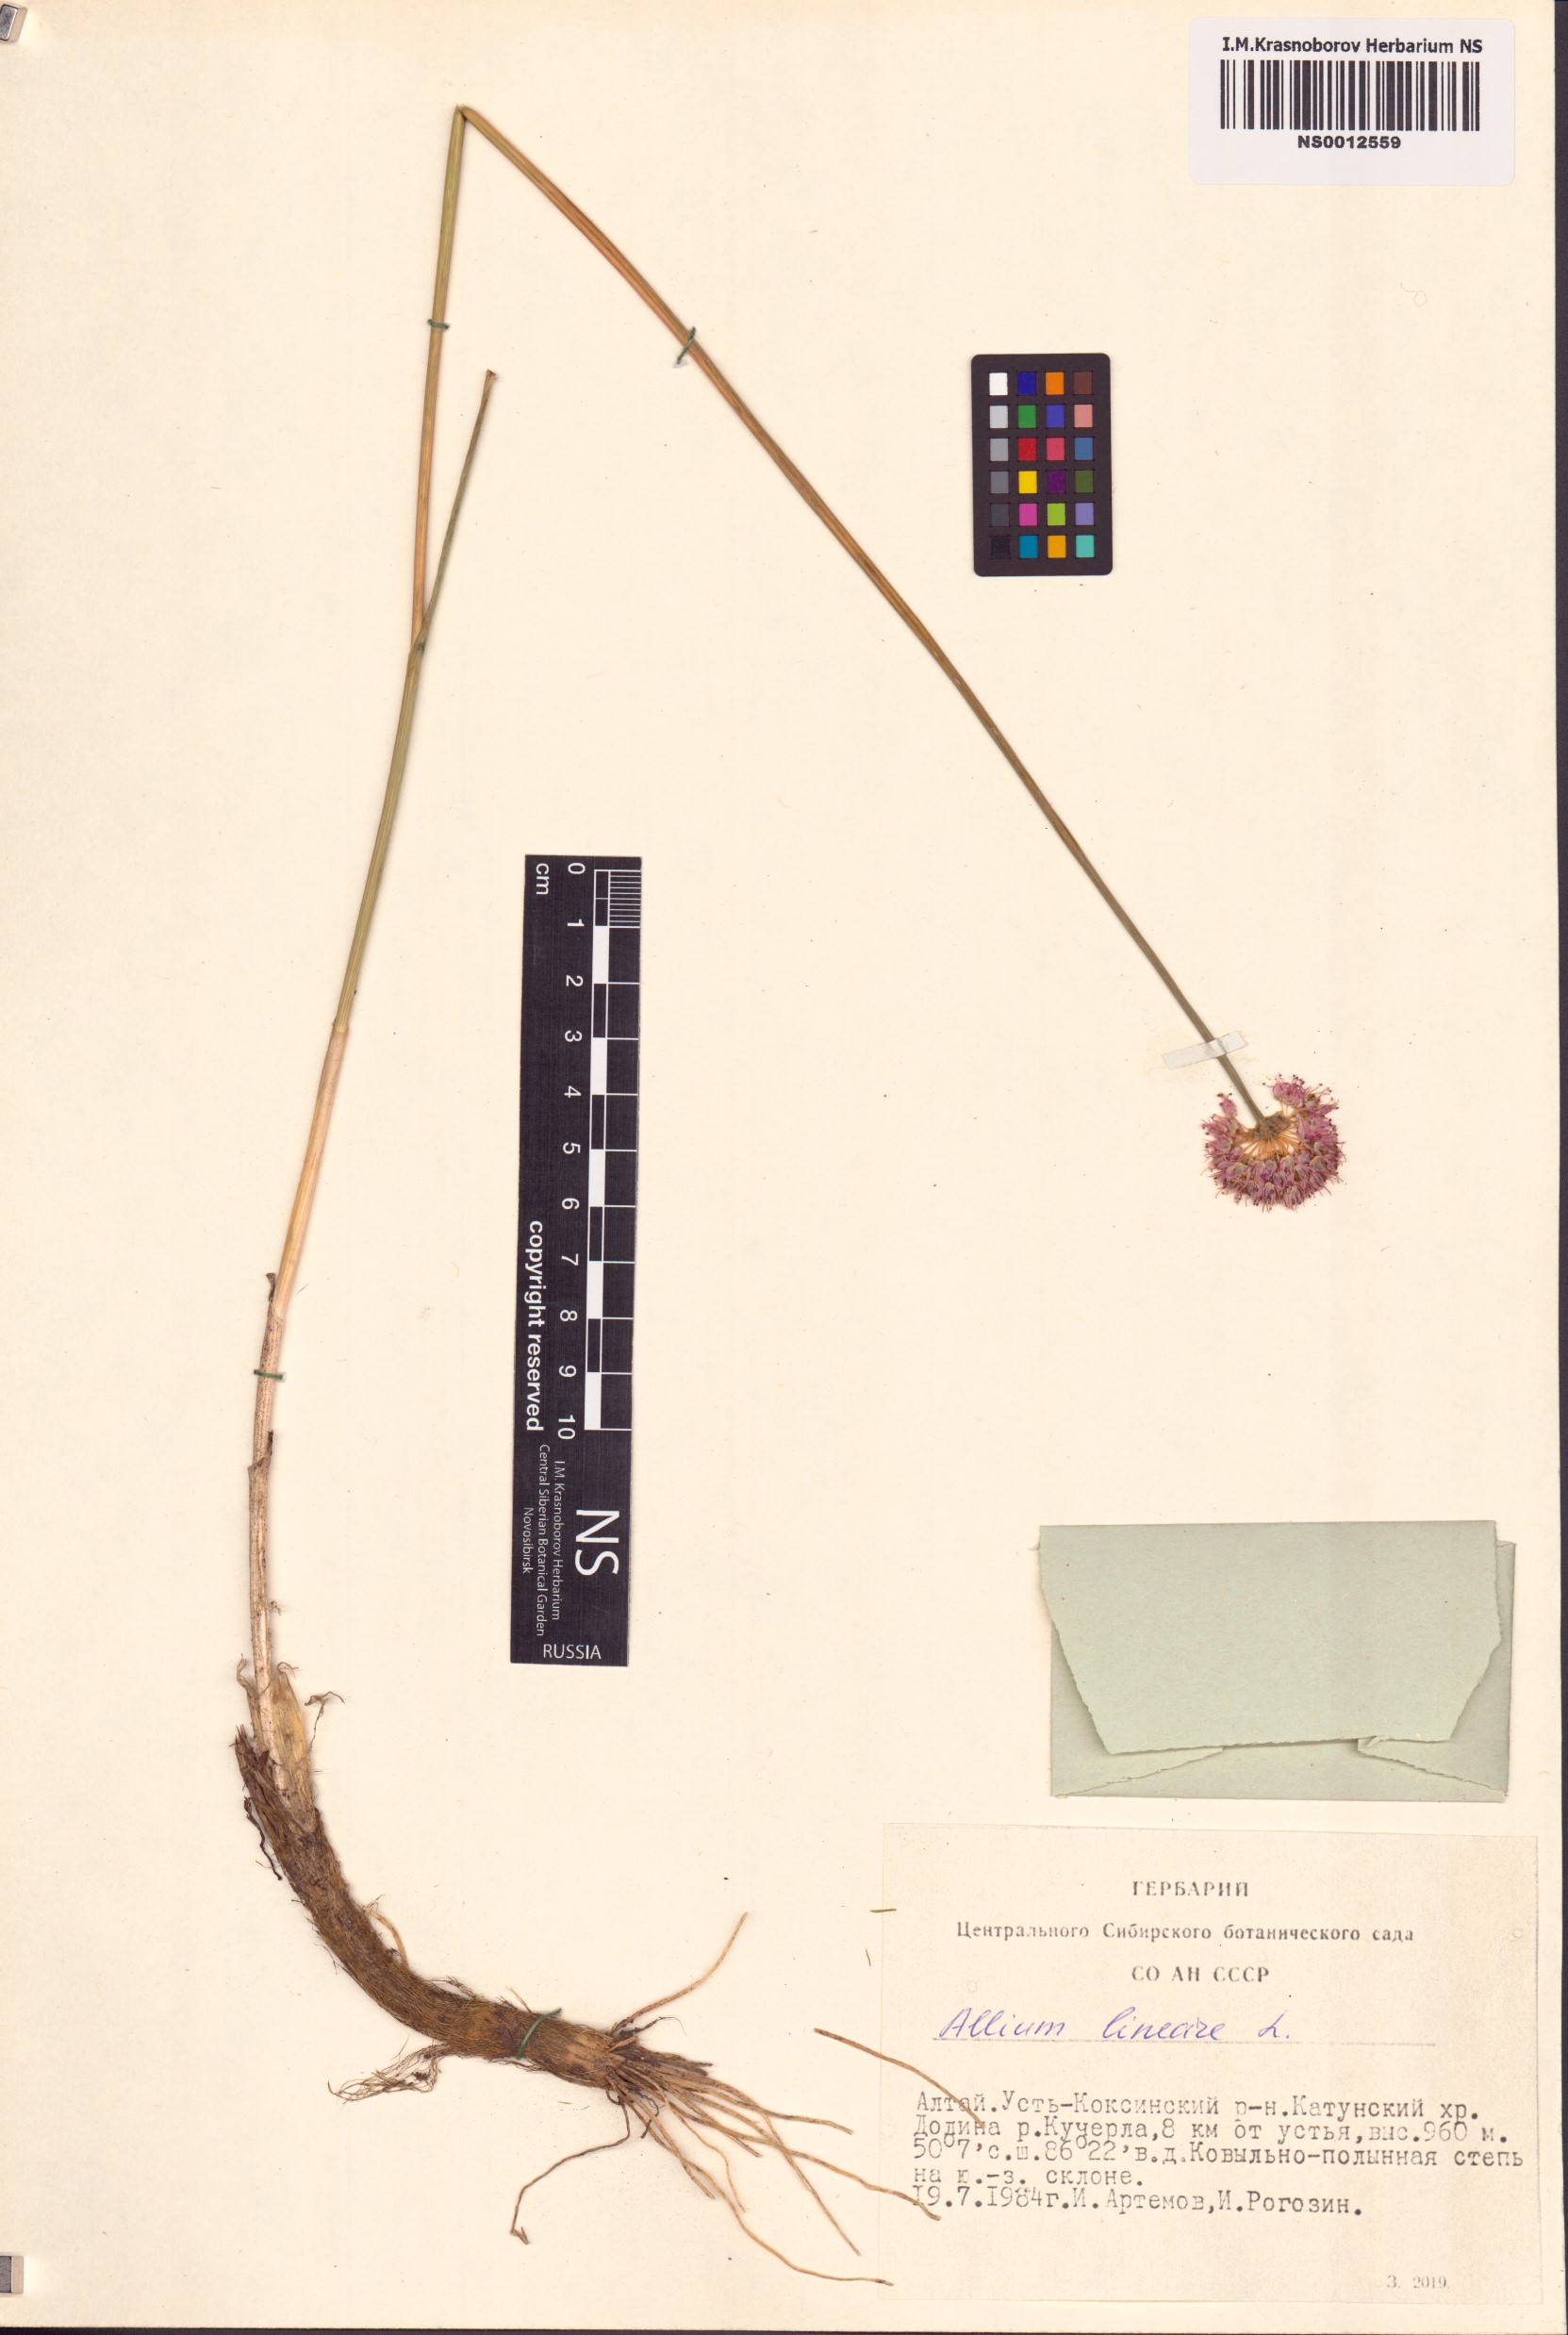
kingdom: Plantae
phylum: Tracheophyta
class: Liliopsida
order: Asparagales
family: Amaryllidaceae
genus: Allium
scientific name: Allium lineare
